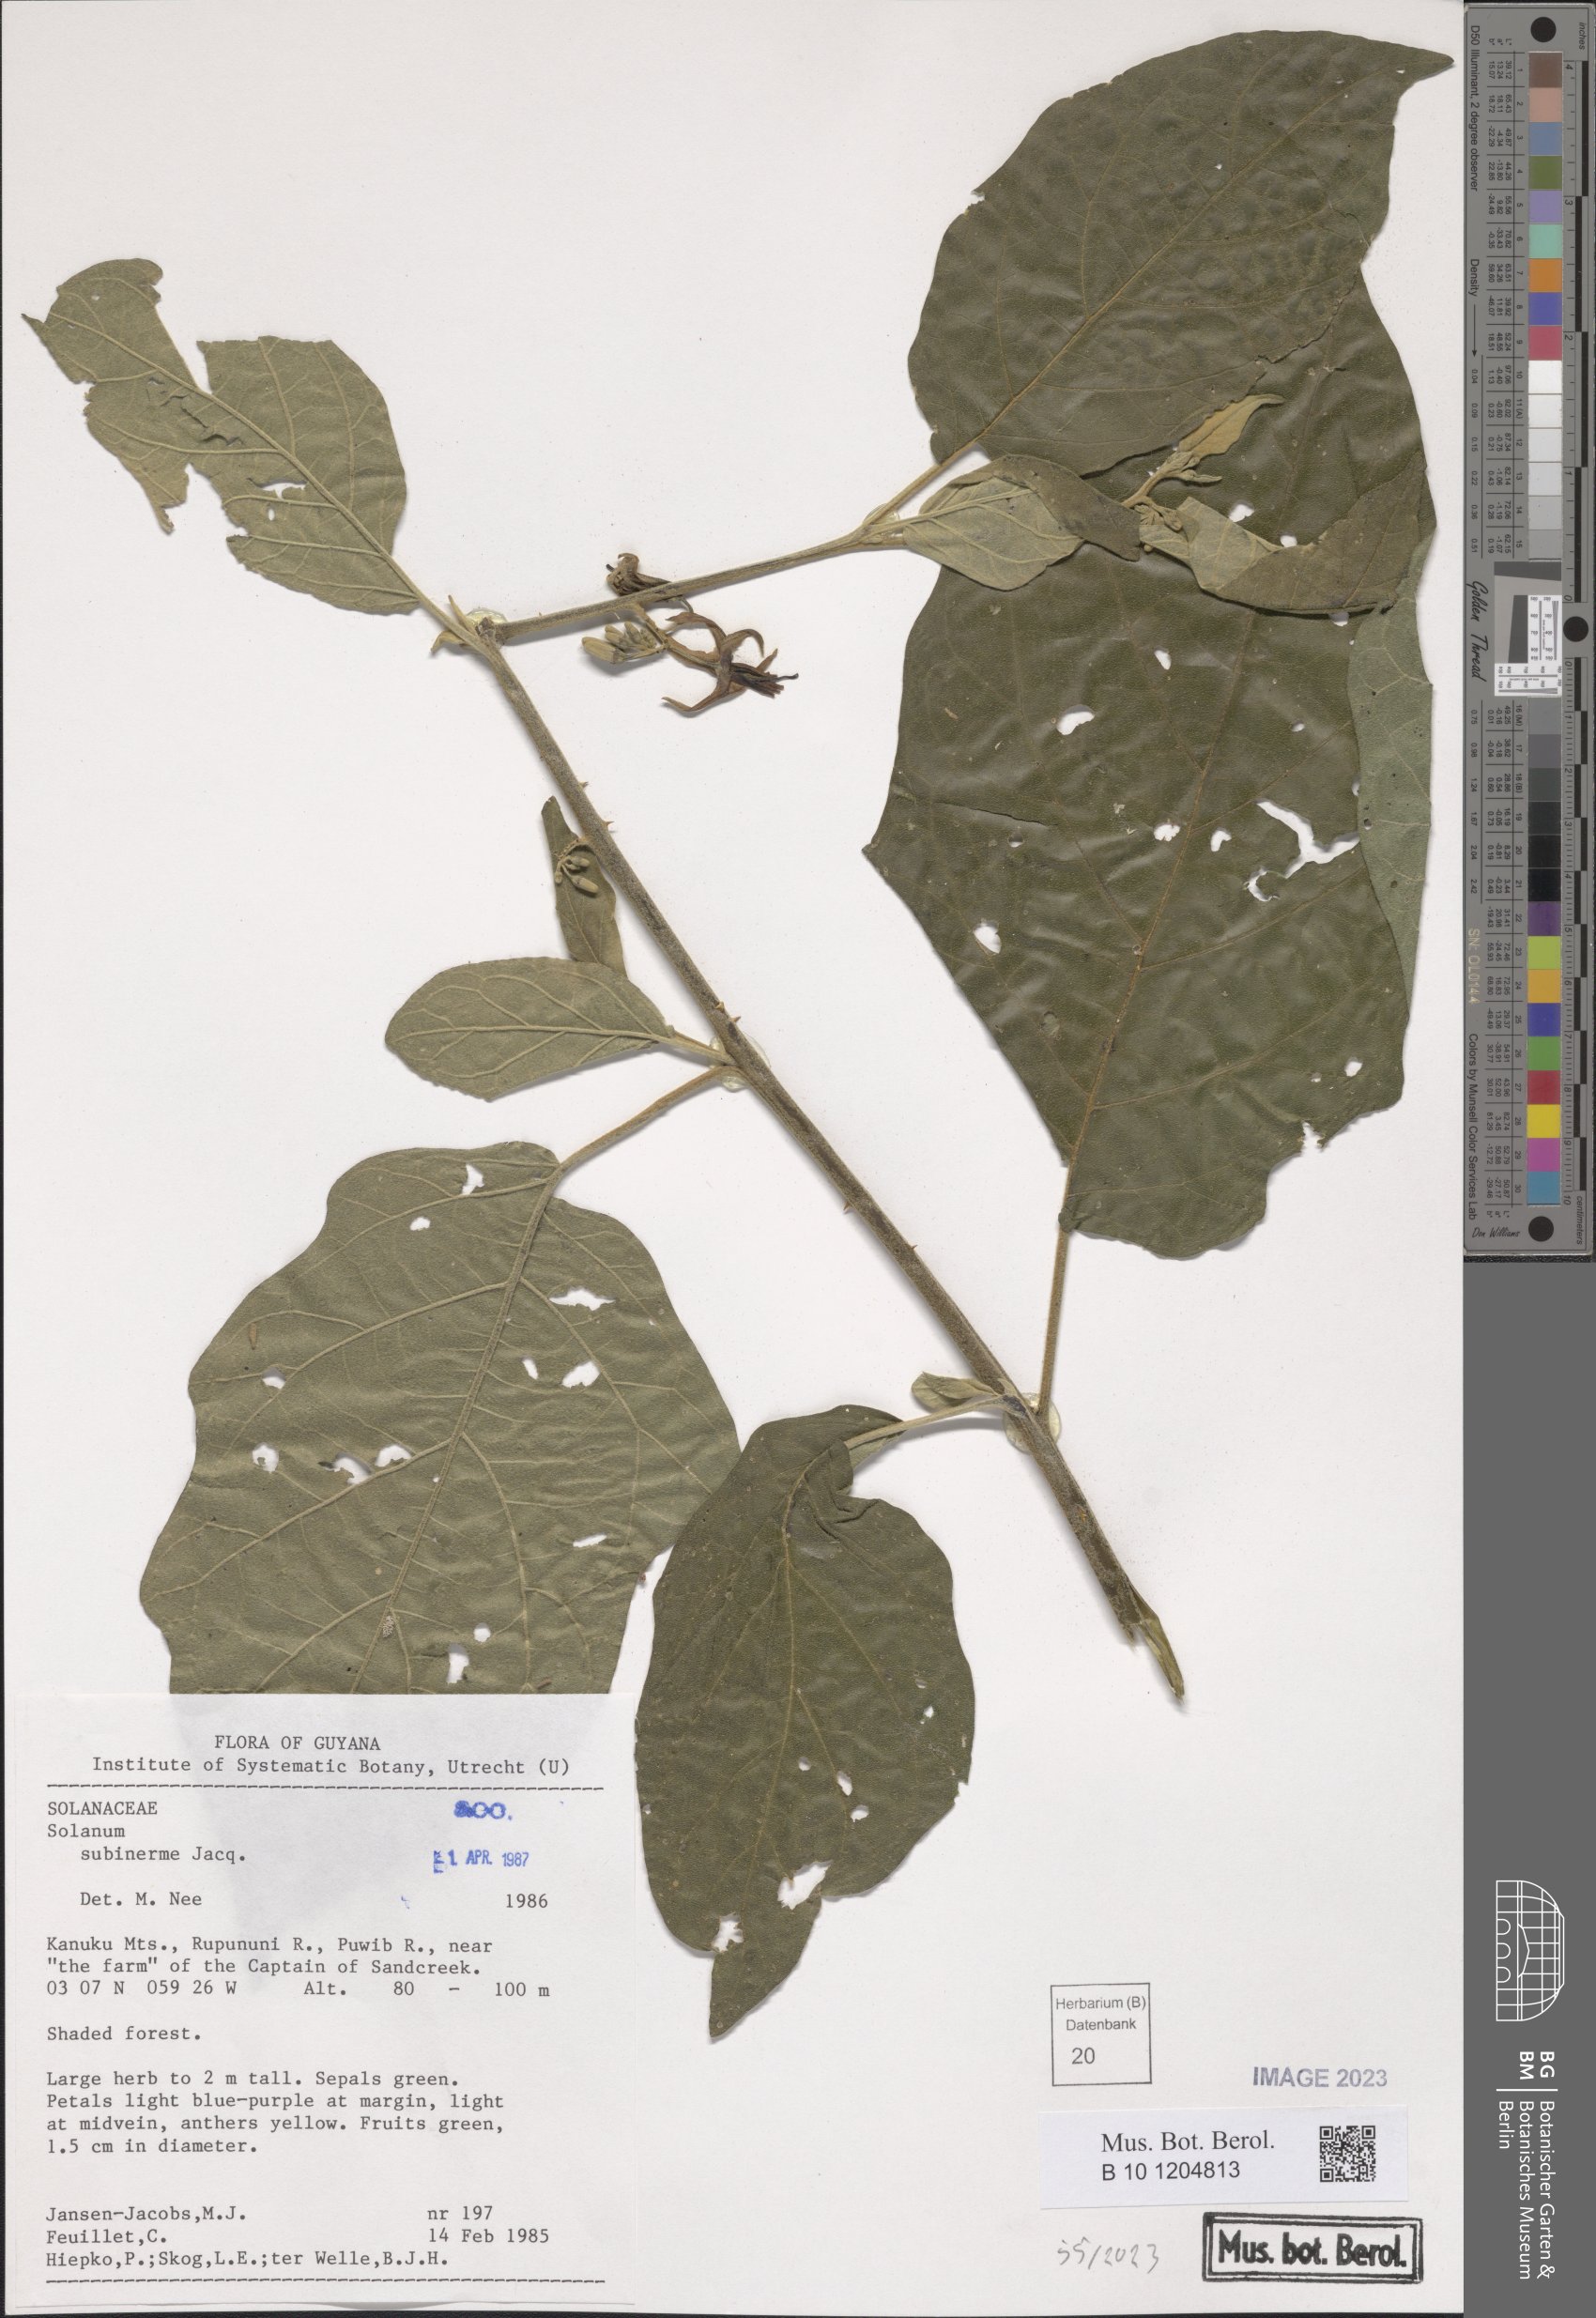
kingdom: Plantae
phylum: Tracheophyta
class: Magnoliopsida
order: Solanales
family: Solanaceae
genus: Solanum
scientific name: Solanum subinerme
